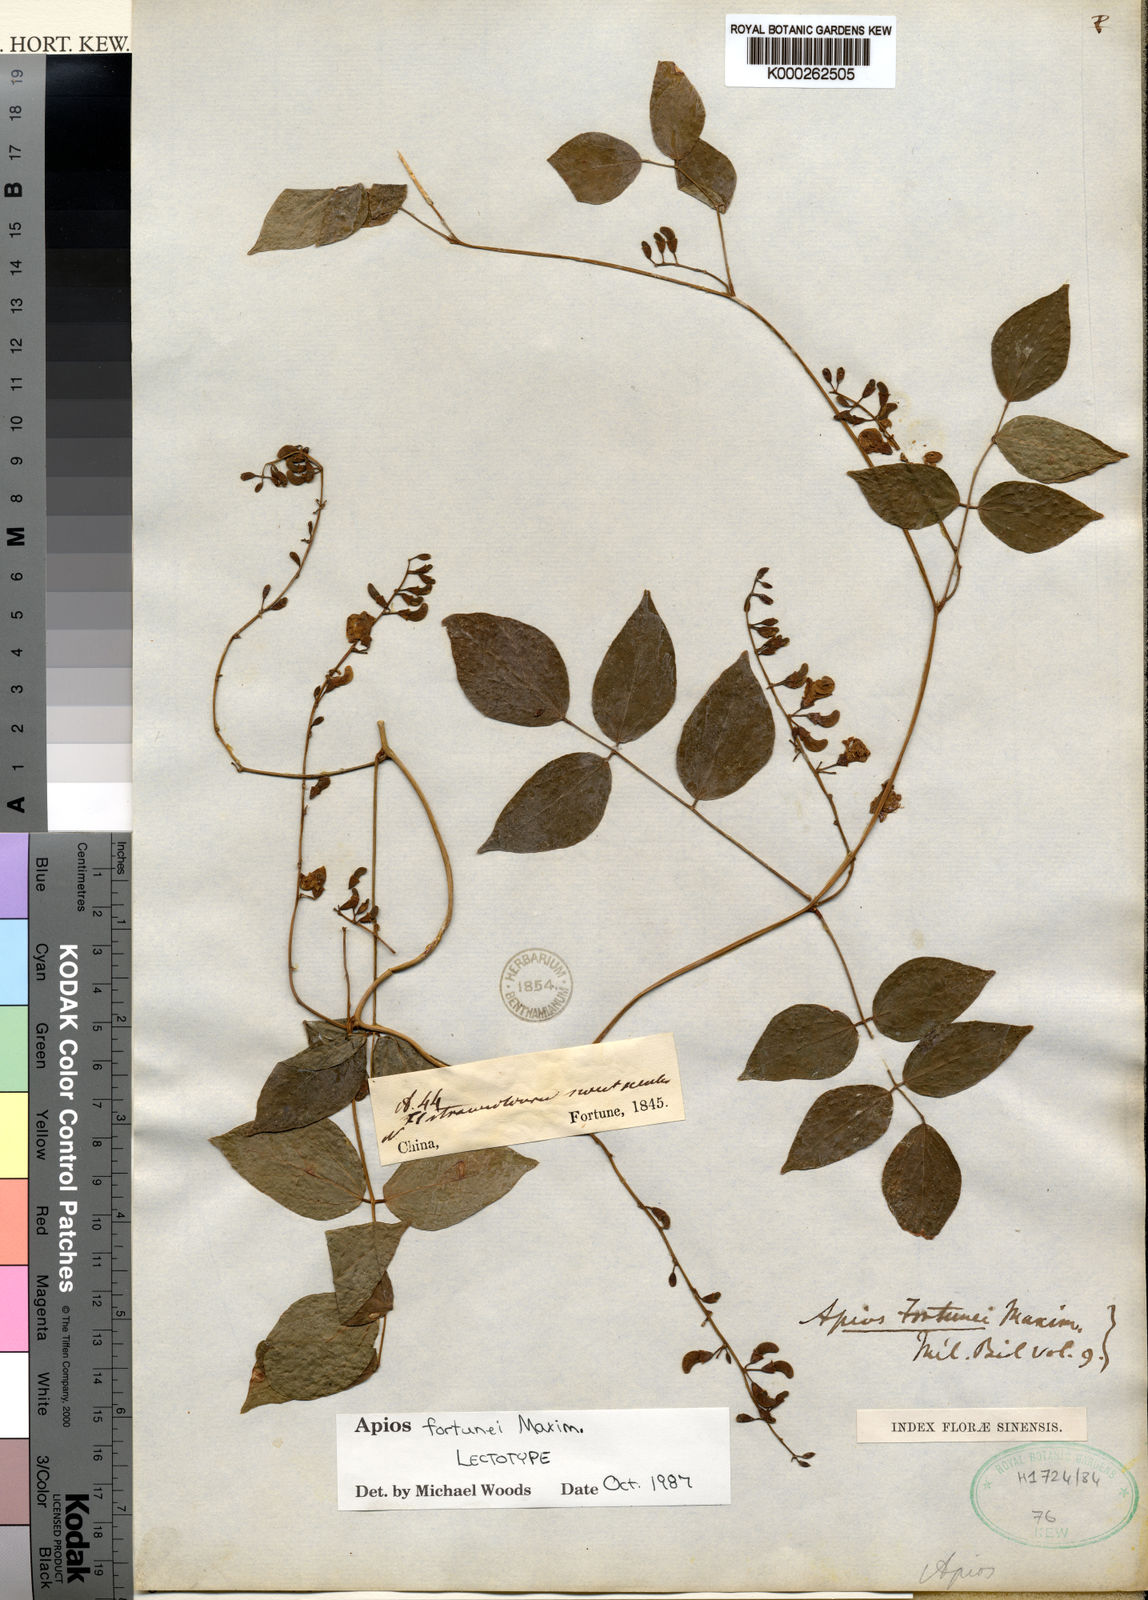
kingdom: Plantae
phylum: Tracheophyta
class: Magnoliopsida
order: Fabales
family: Fabaceae
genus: Apios
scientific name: Apios fortunei
